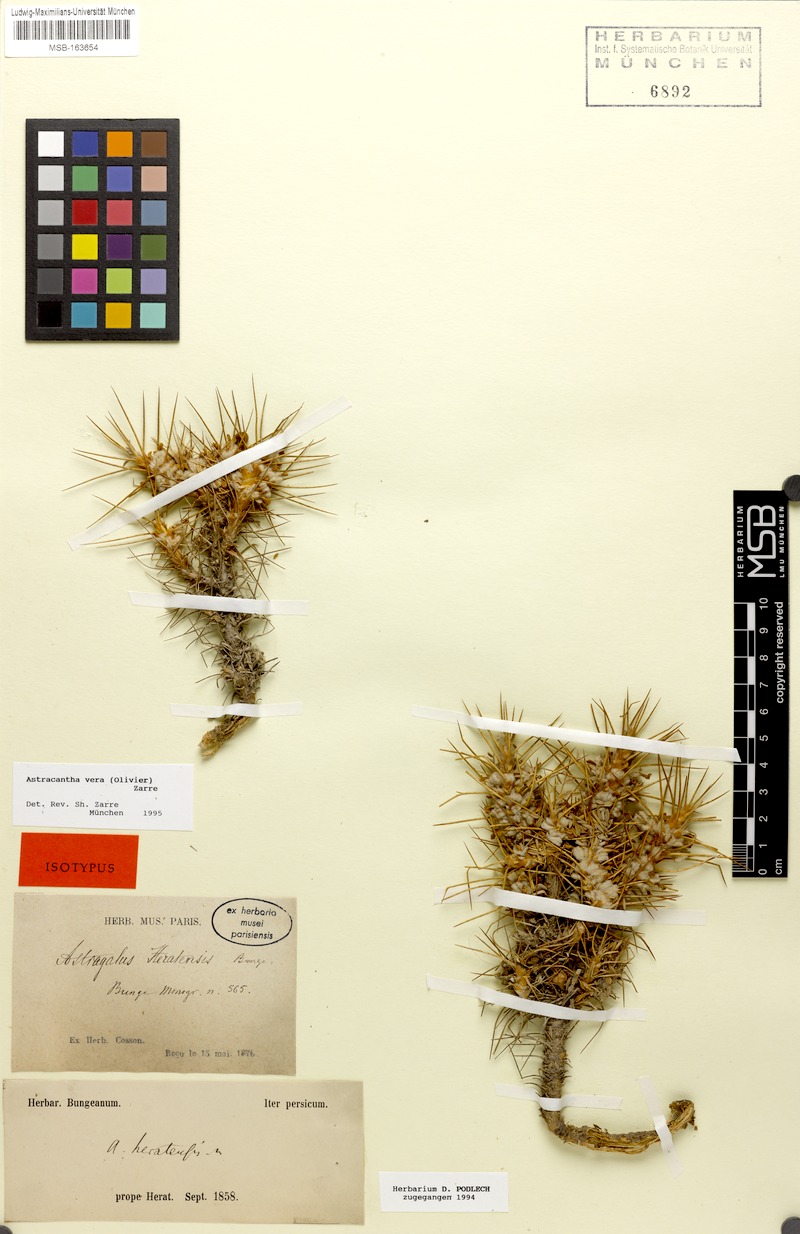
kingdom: Plantae
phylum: Tracheophyta
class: Magnoliopsida
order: Fabales
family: Fabaceae
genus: Astragalus
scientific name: Astragalus verus
